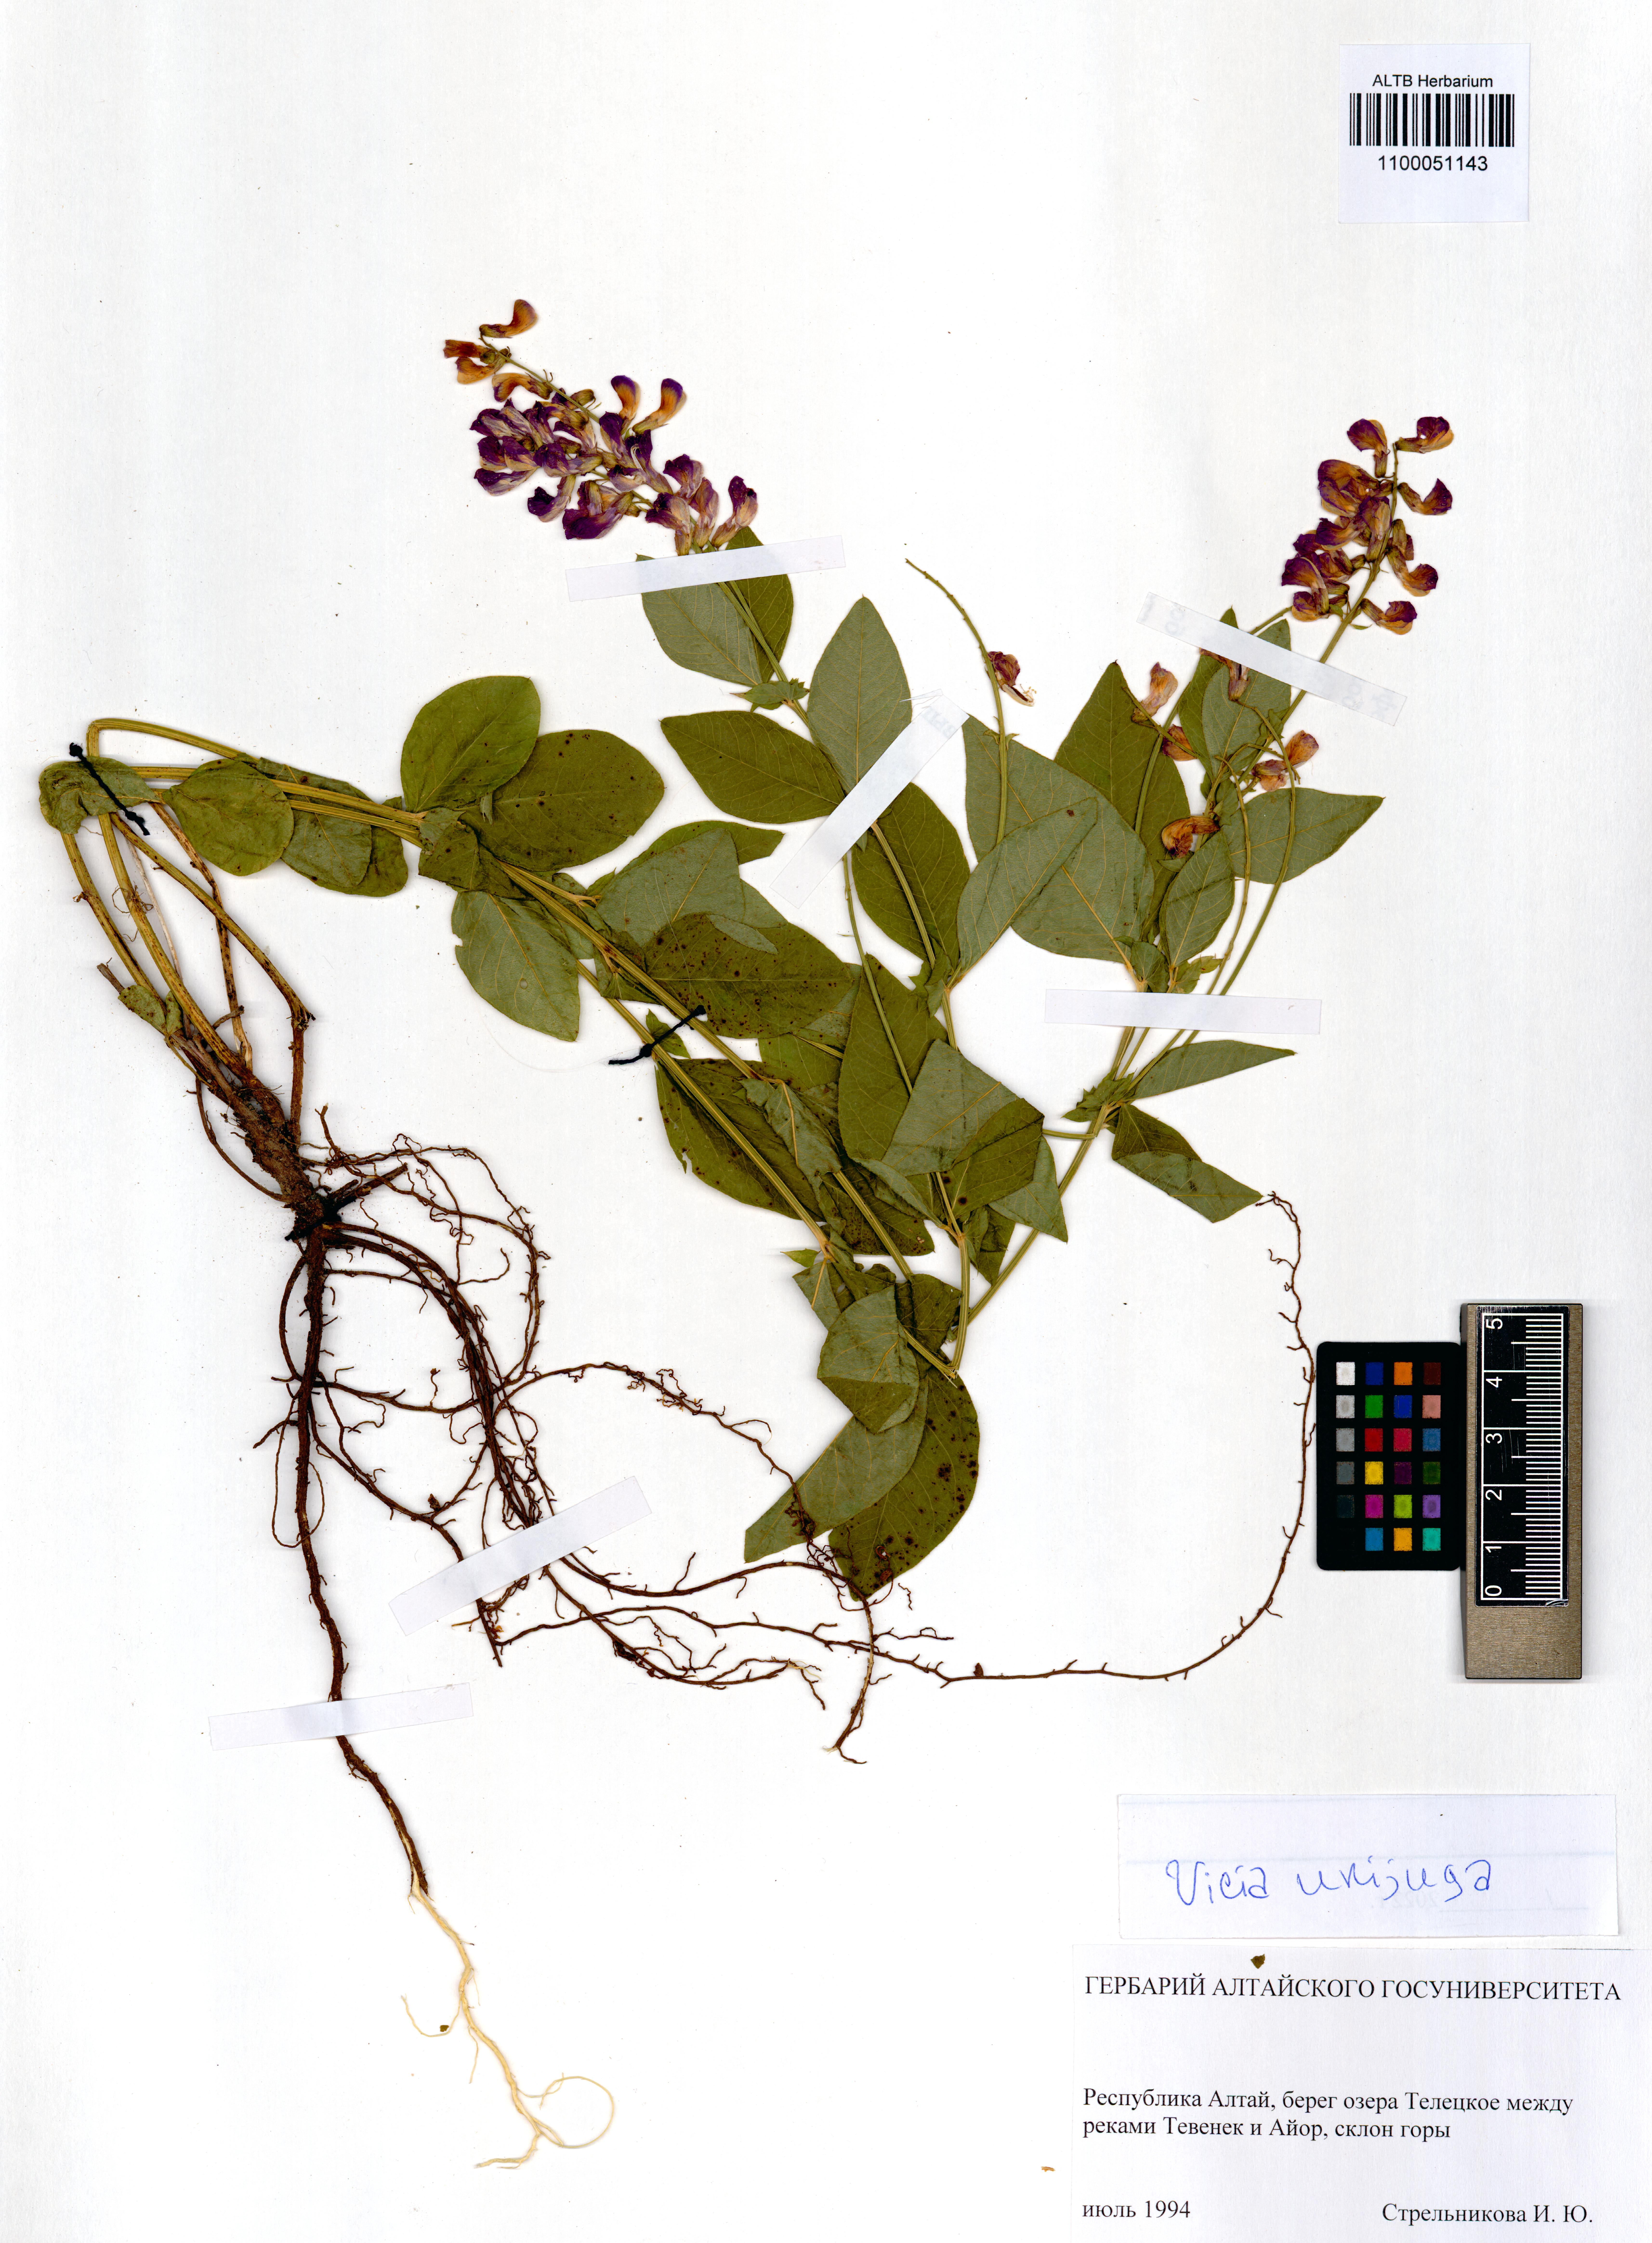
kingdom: Plantae
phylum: Tracheophyta
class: Magnoliopsida
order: Fabales
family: Fabaceae
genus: Vicia
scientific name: Vicia unijuga
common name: Two-leaf vetch
